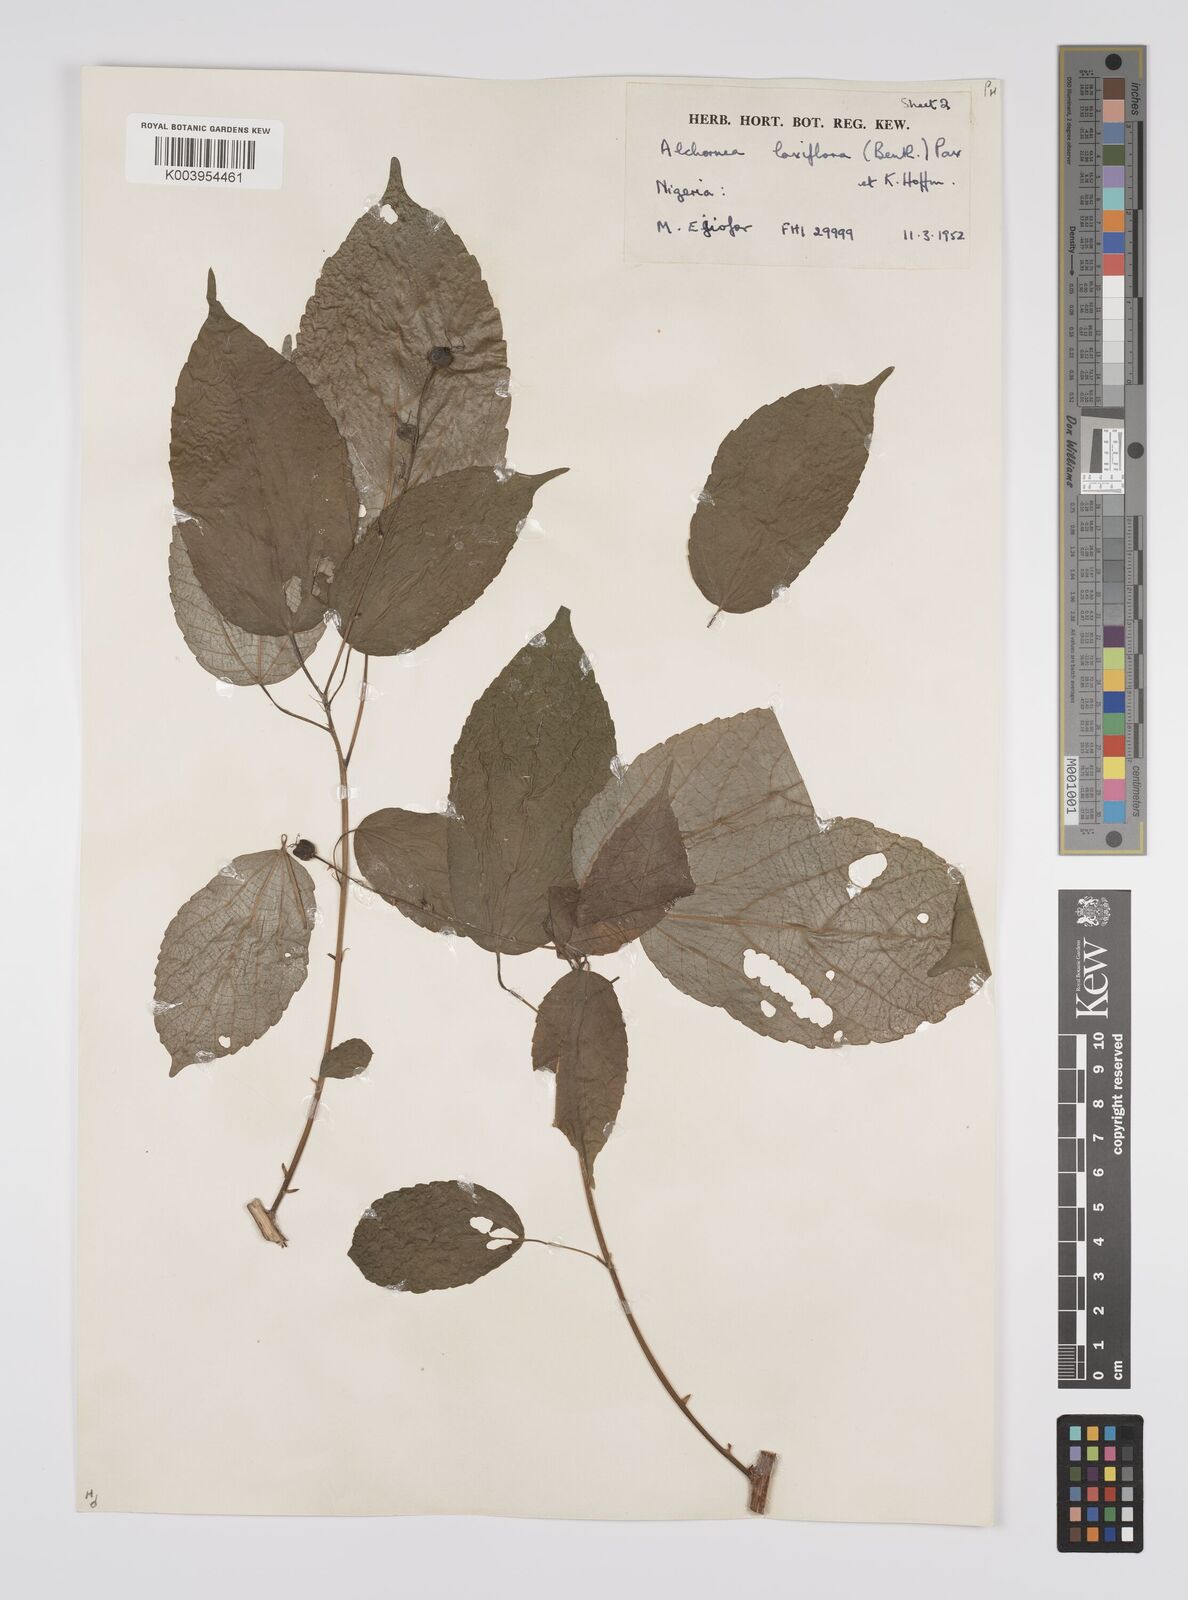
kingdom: Plantae
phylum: Tracheophyta
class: Magnoliopsida
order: Malpighiales
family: Euphorbiaceae
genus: Alchornea
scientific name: Alchornea laxiflora
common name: Lowveld bead-string
